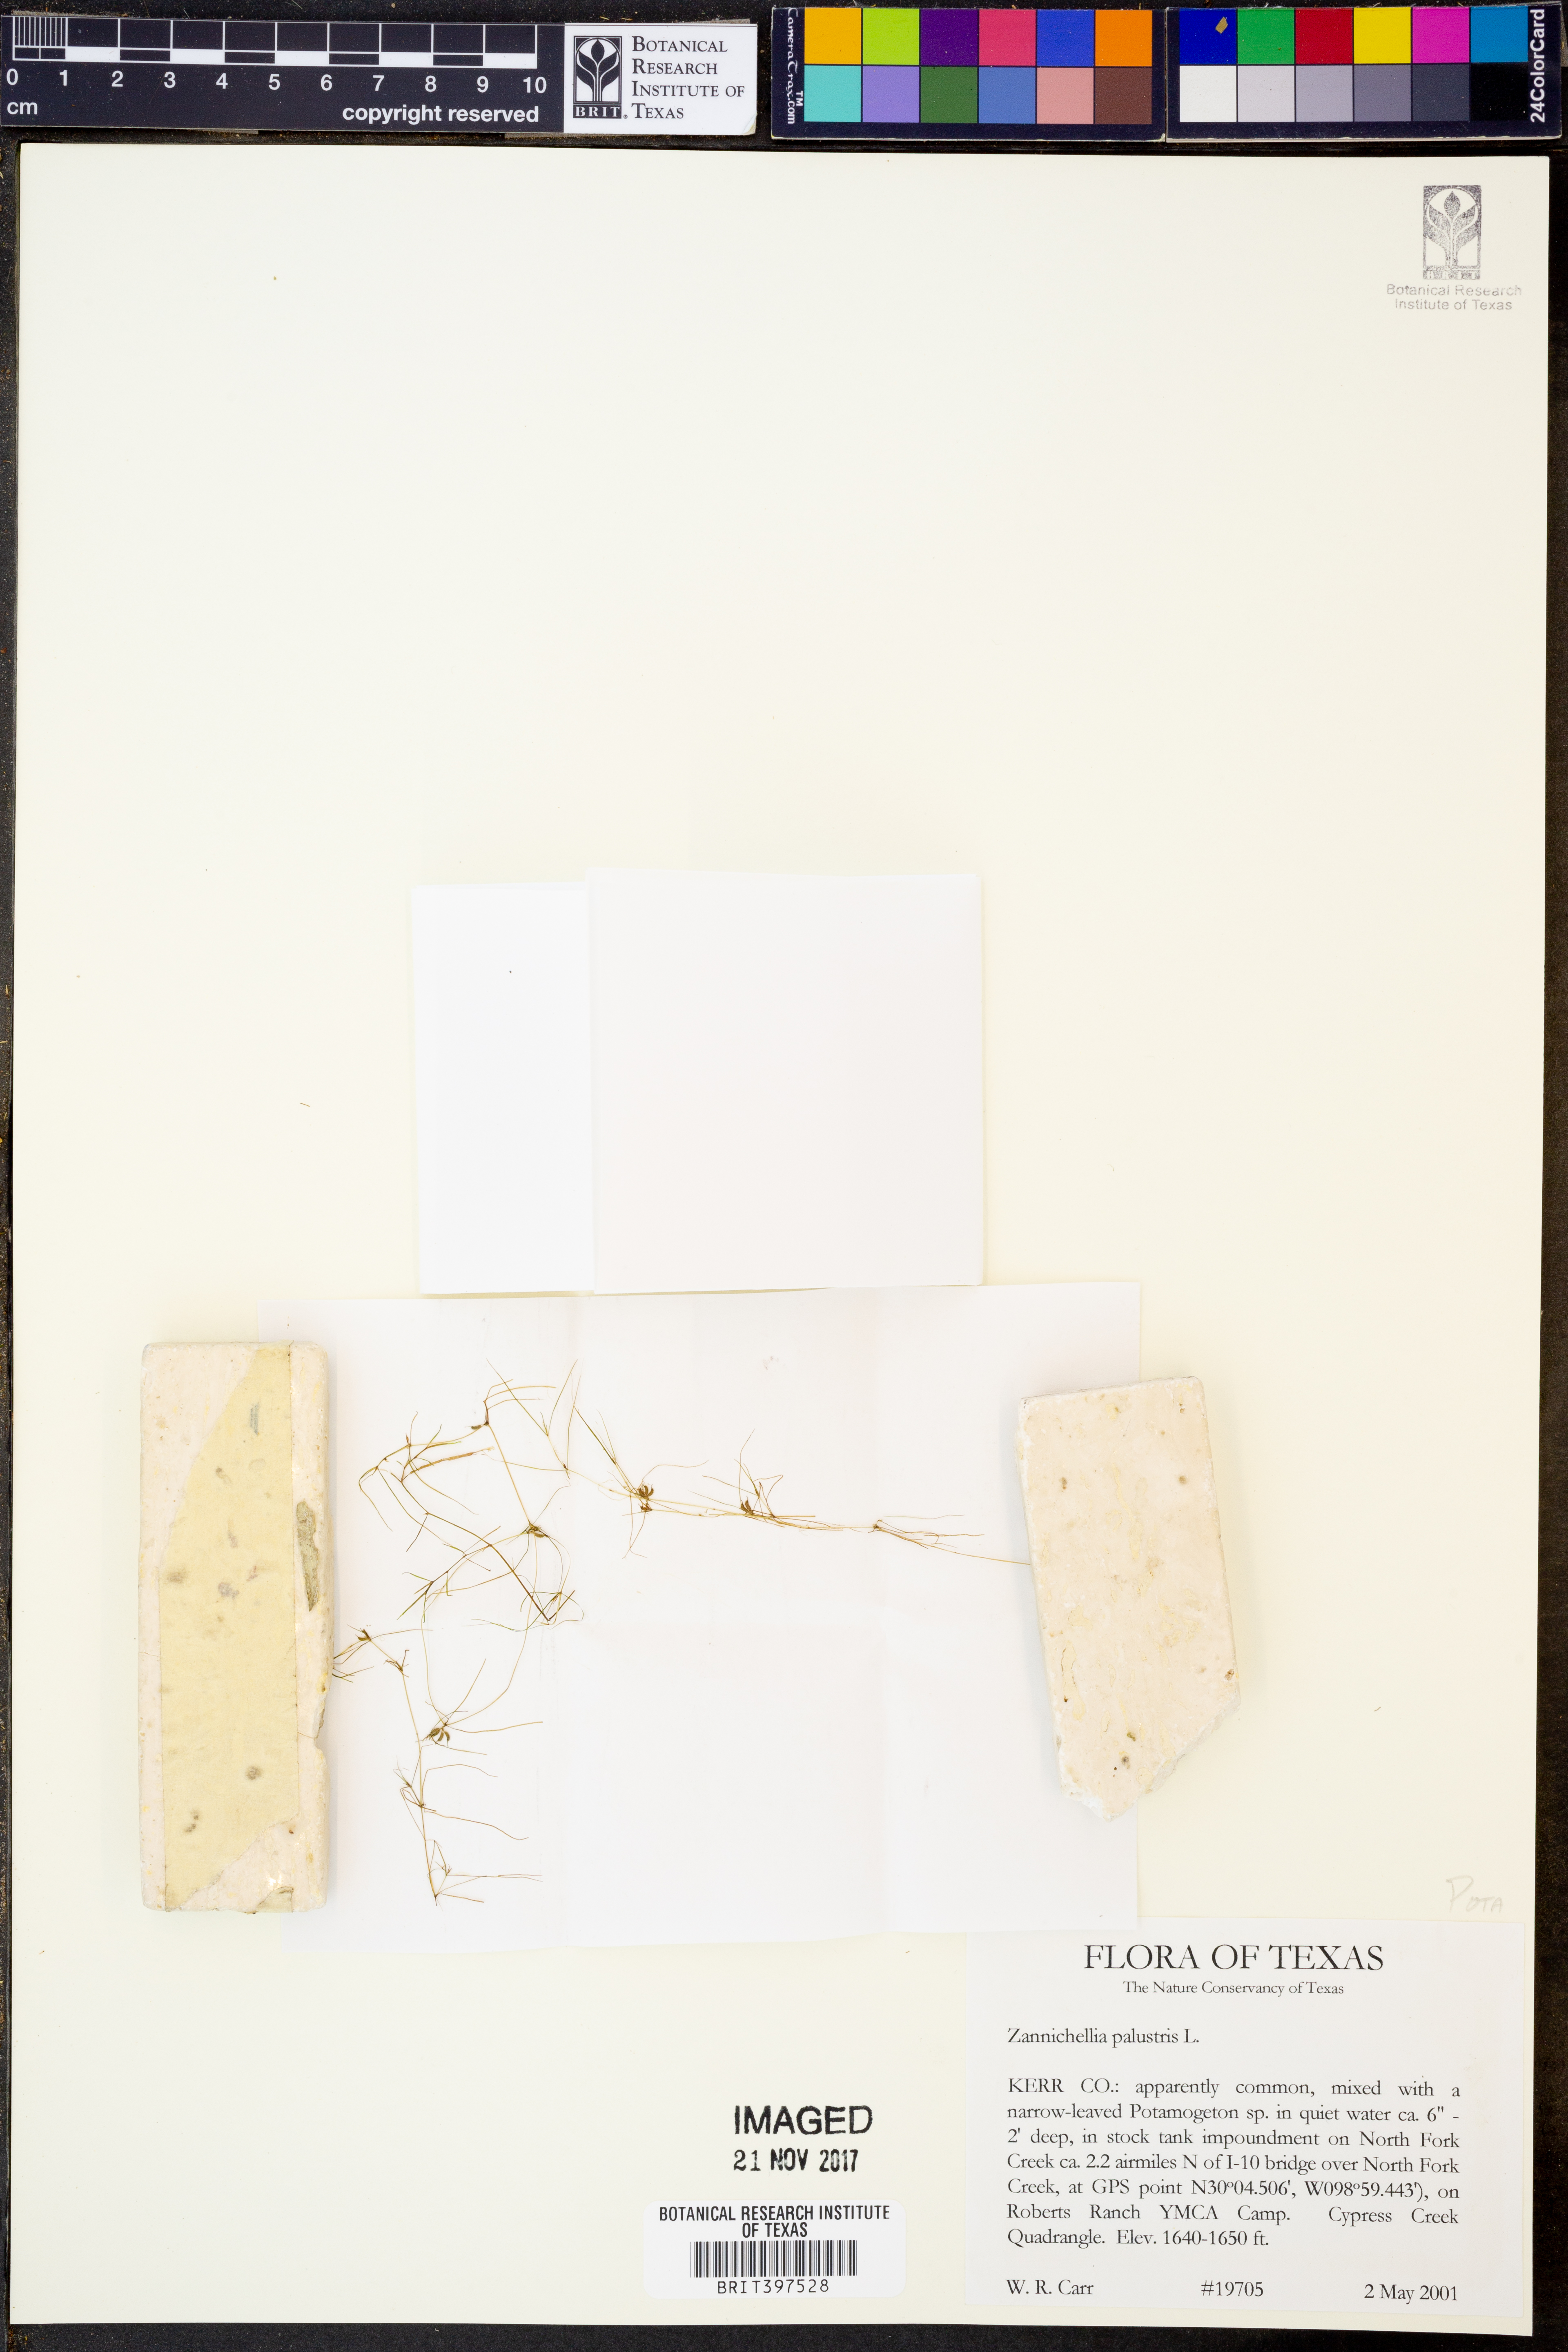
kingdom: Plantae
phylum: Tracheophyta
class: Liliopsida
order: Alismatales
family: Potamogetonaceae
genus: Zannichellia
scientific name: Zannichellia palustris
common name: Horned pondweed
